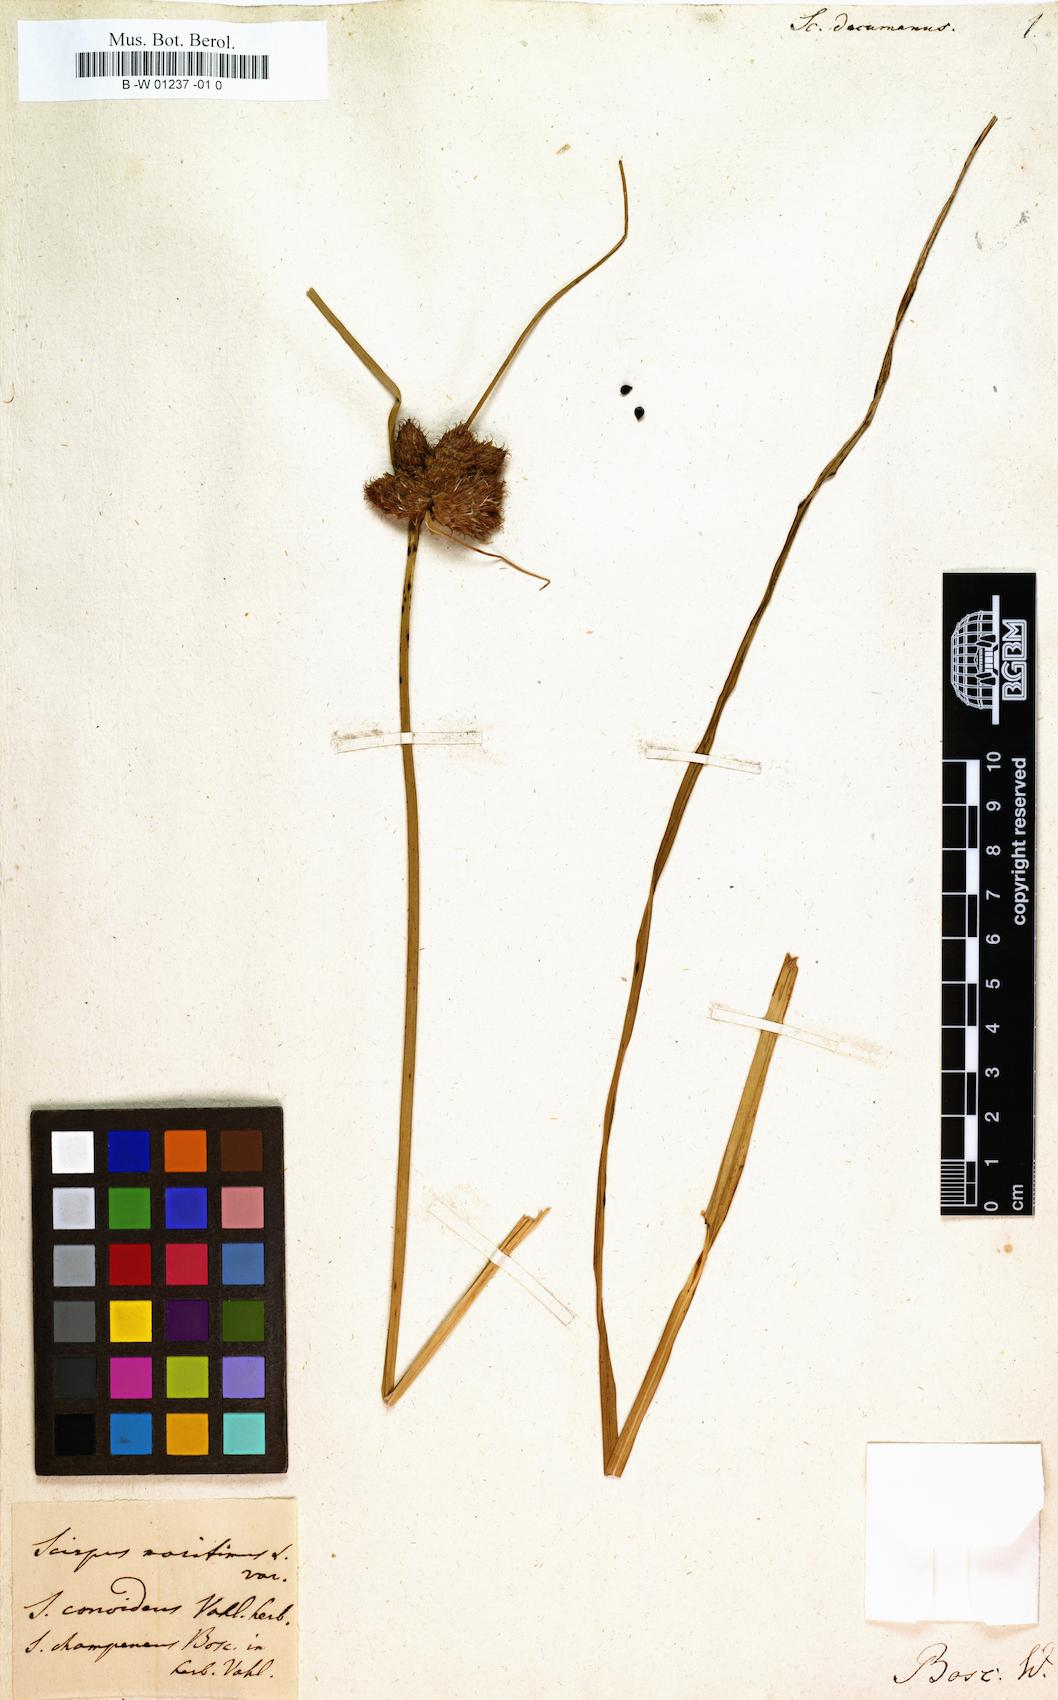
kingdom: Plantae
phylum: Tracheophyta
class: Liliopsida
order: Poales
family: Cyperaceae
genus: Bolboschoenus
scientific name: Bolboschoenus maritimus
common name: Sea club-rush
